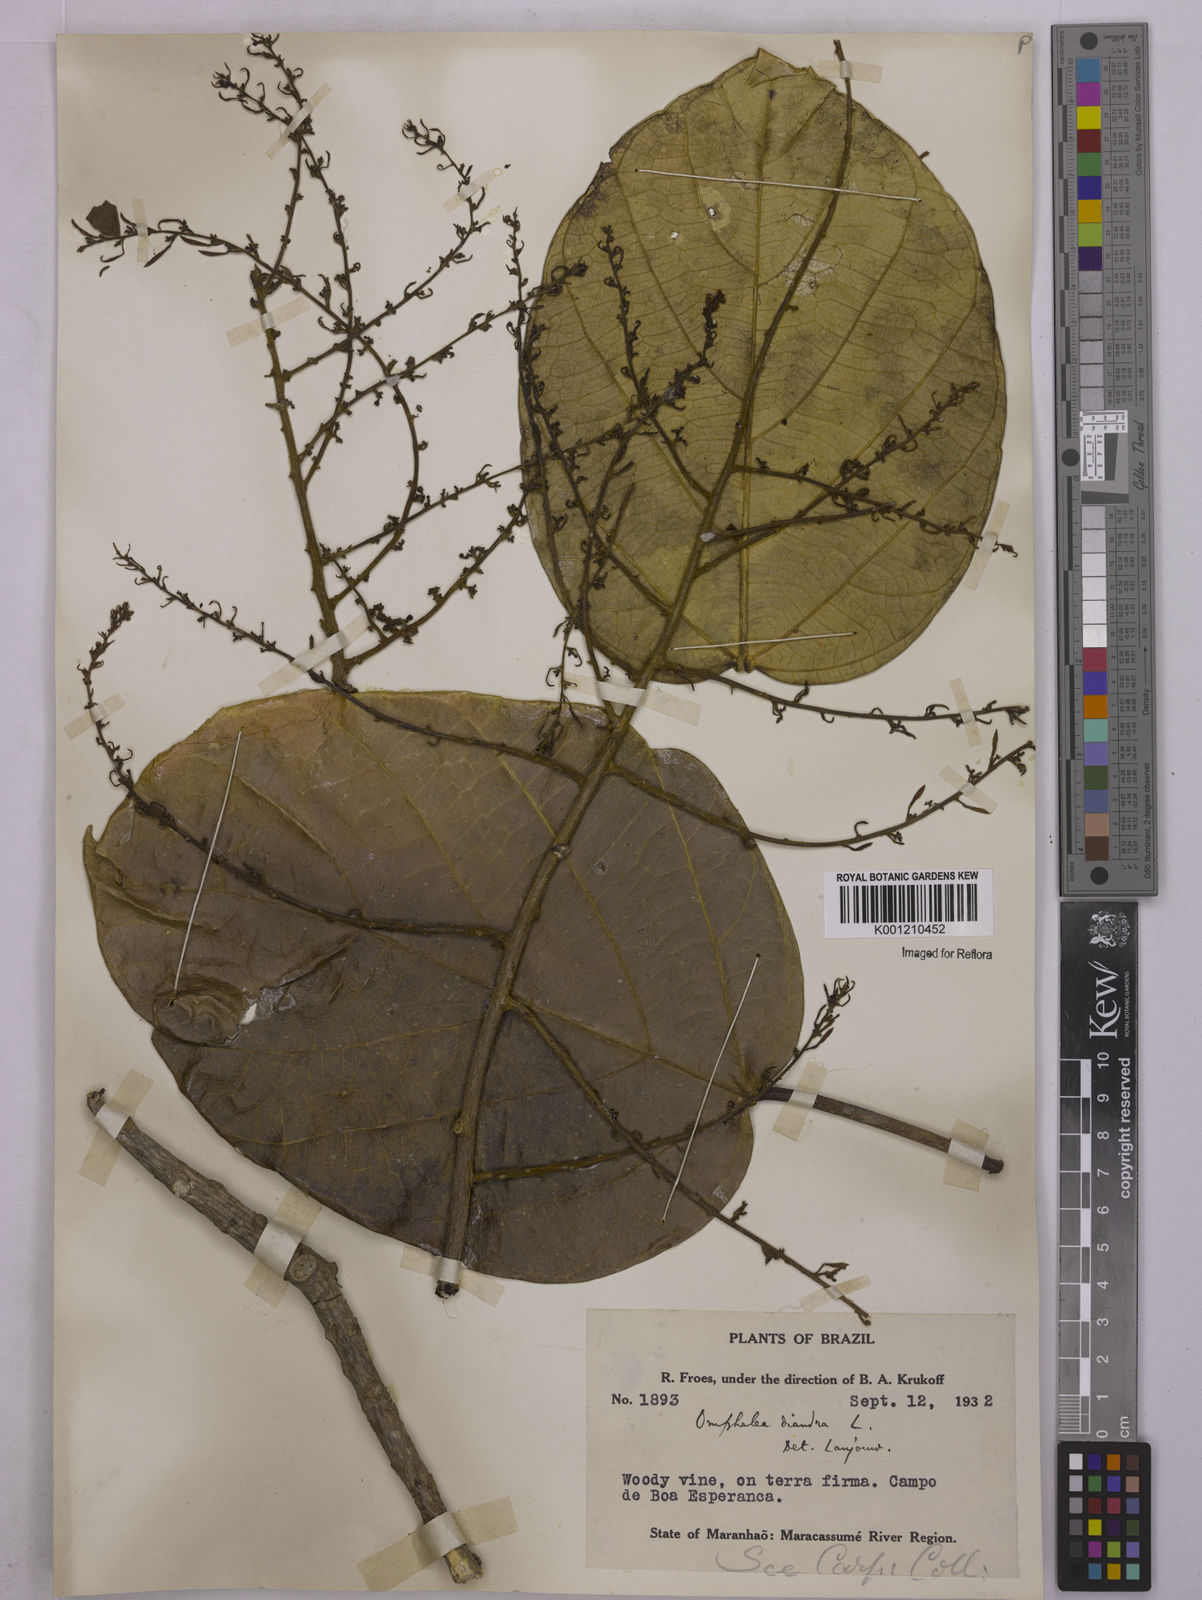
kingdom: Plantae
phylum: Tracheophyta
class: Magnoliopsida
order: Malpighiales
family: Euphorbiaceae
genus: Omphalea
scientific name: Omphalea diandra
